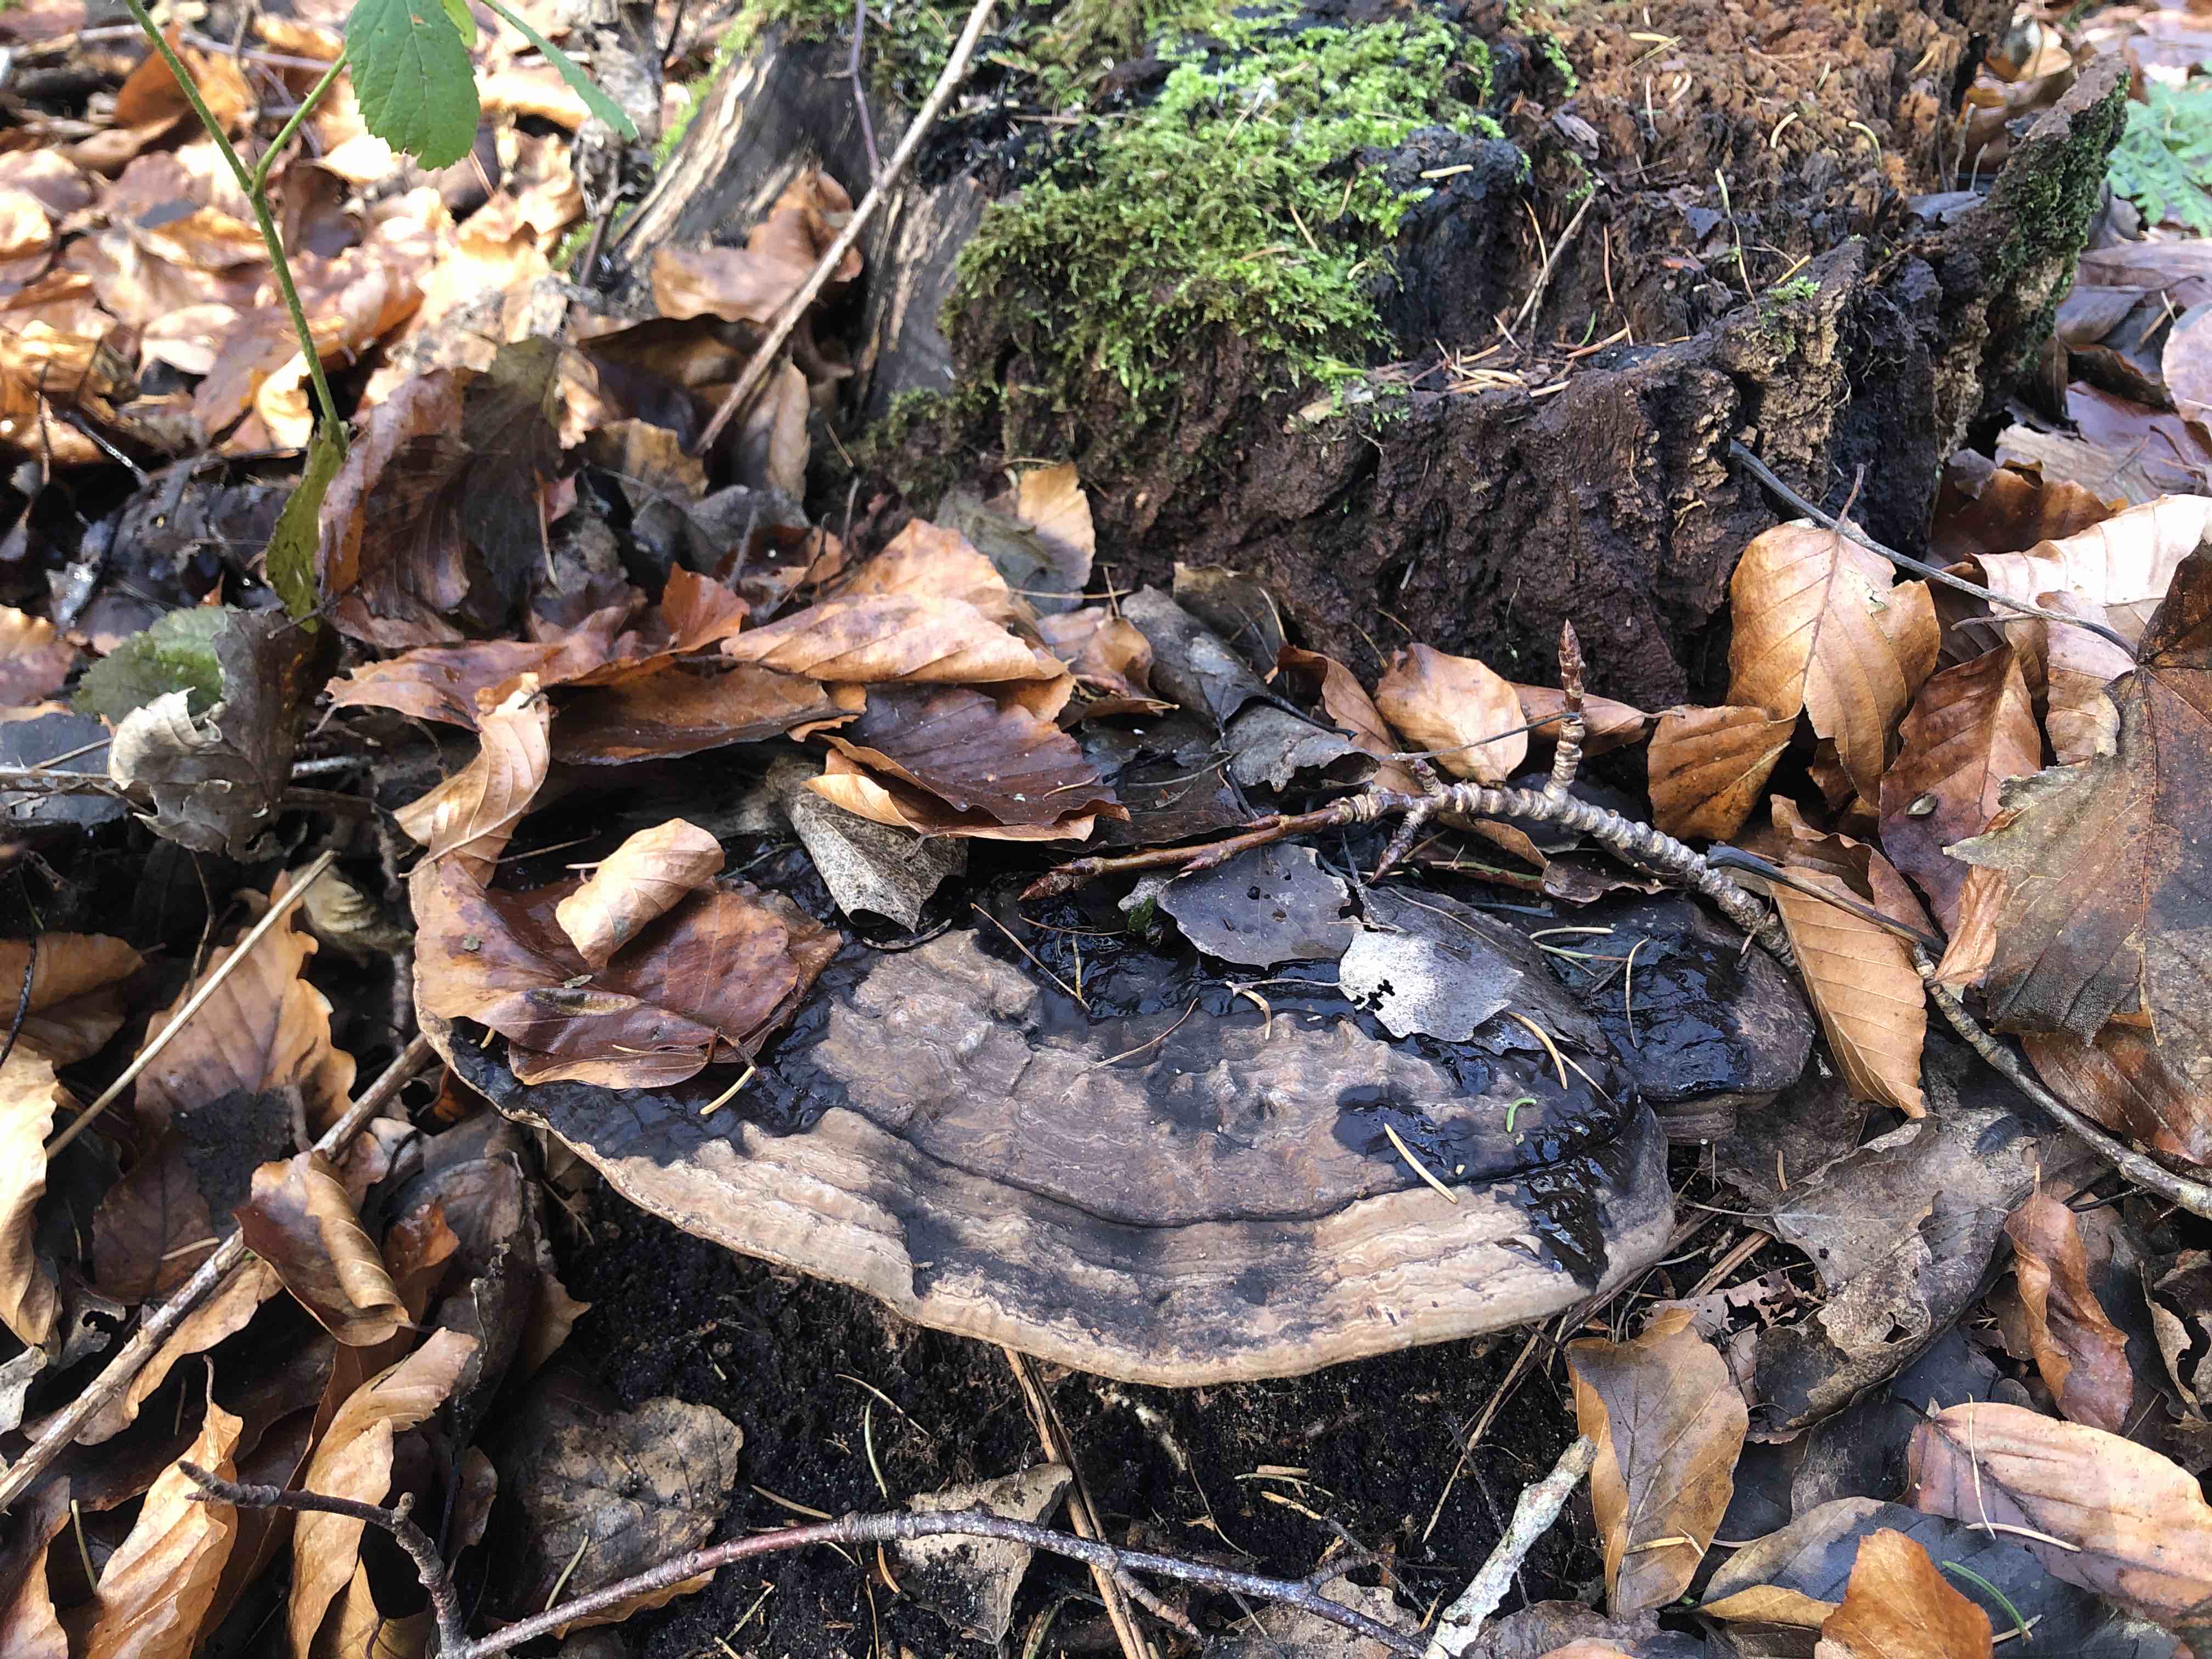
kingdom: Fungi
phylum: Basidiomycota
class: Agaricomycetes
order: Polyporales
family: Polyporaceae
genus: Ganoderma
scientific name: Ganoderma applanatum
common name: flad lakporesvamp
